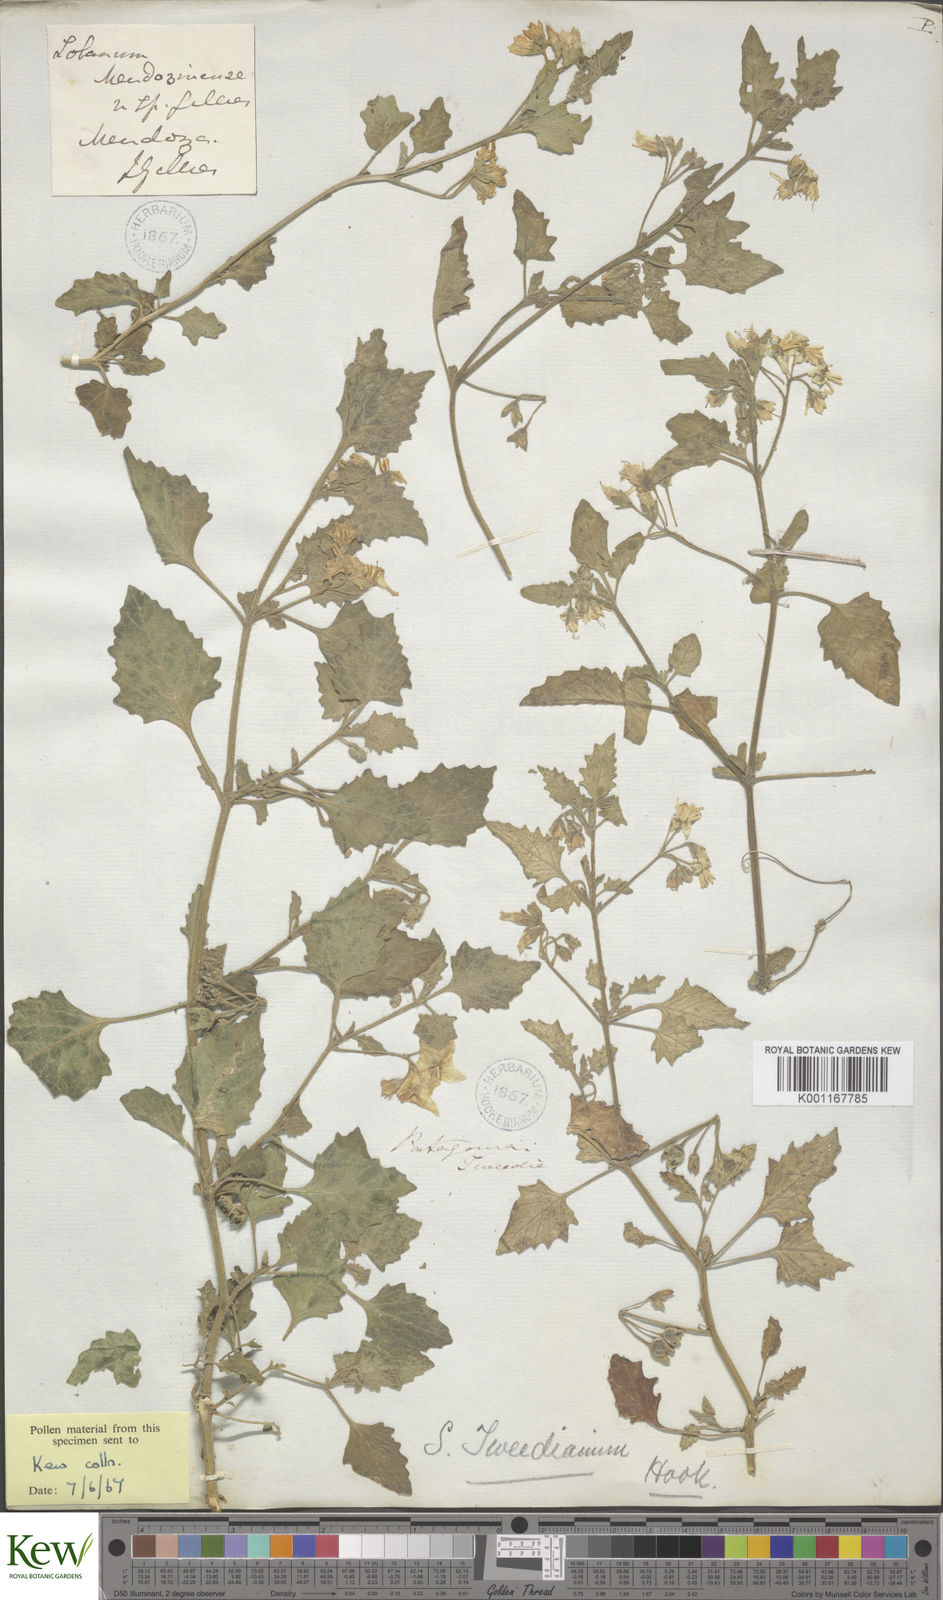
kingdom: Plantae
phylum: Tracheophyta
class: Magnoliopsida
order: Solanales
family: Solanaceae
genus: Solanum
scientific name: Solanum nitidibaccatum
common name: Hairy nightshade
